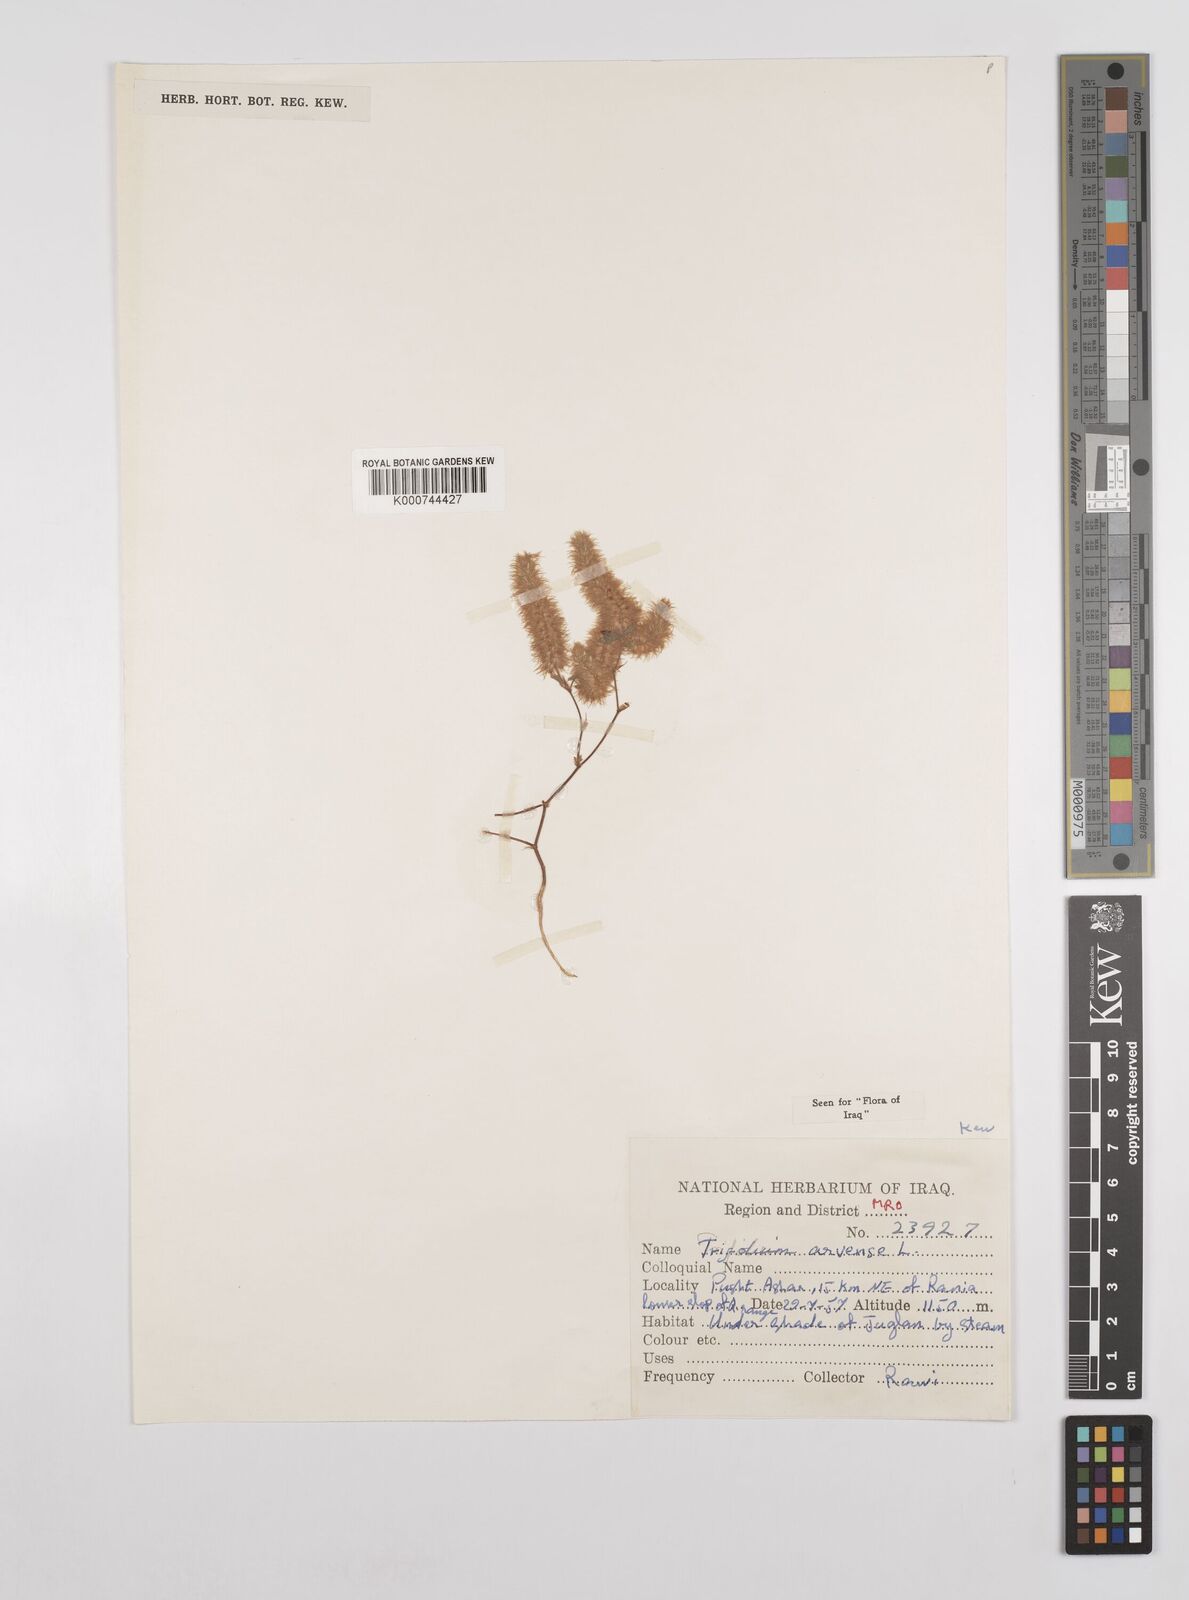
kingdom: Plantae
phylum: Tracheophyta
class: Magnoliopsida
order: Fabales
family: Fabaceae
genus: Trifolium
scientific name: Trifolium arvense
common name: Hare's-foot clover
